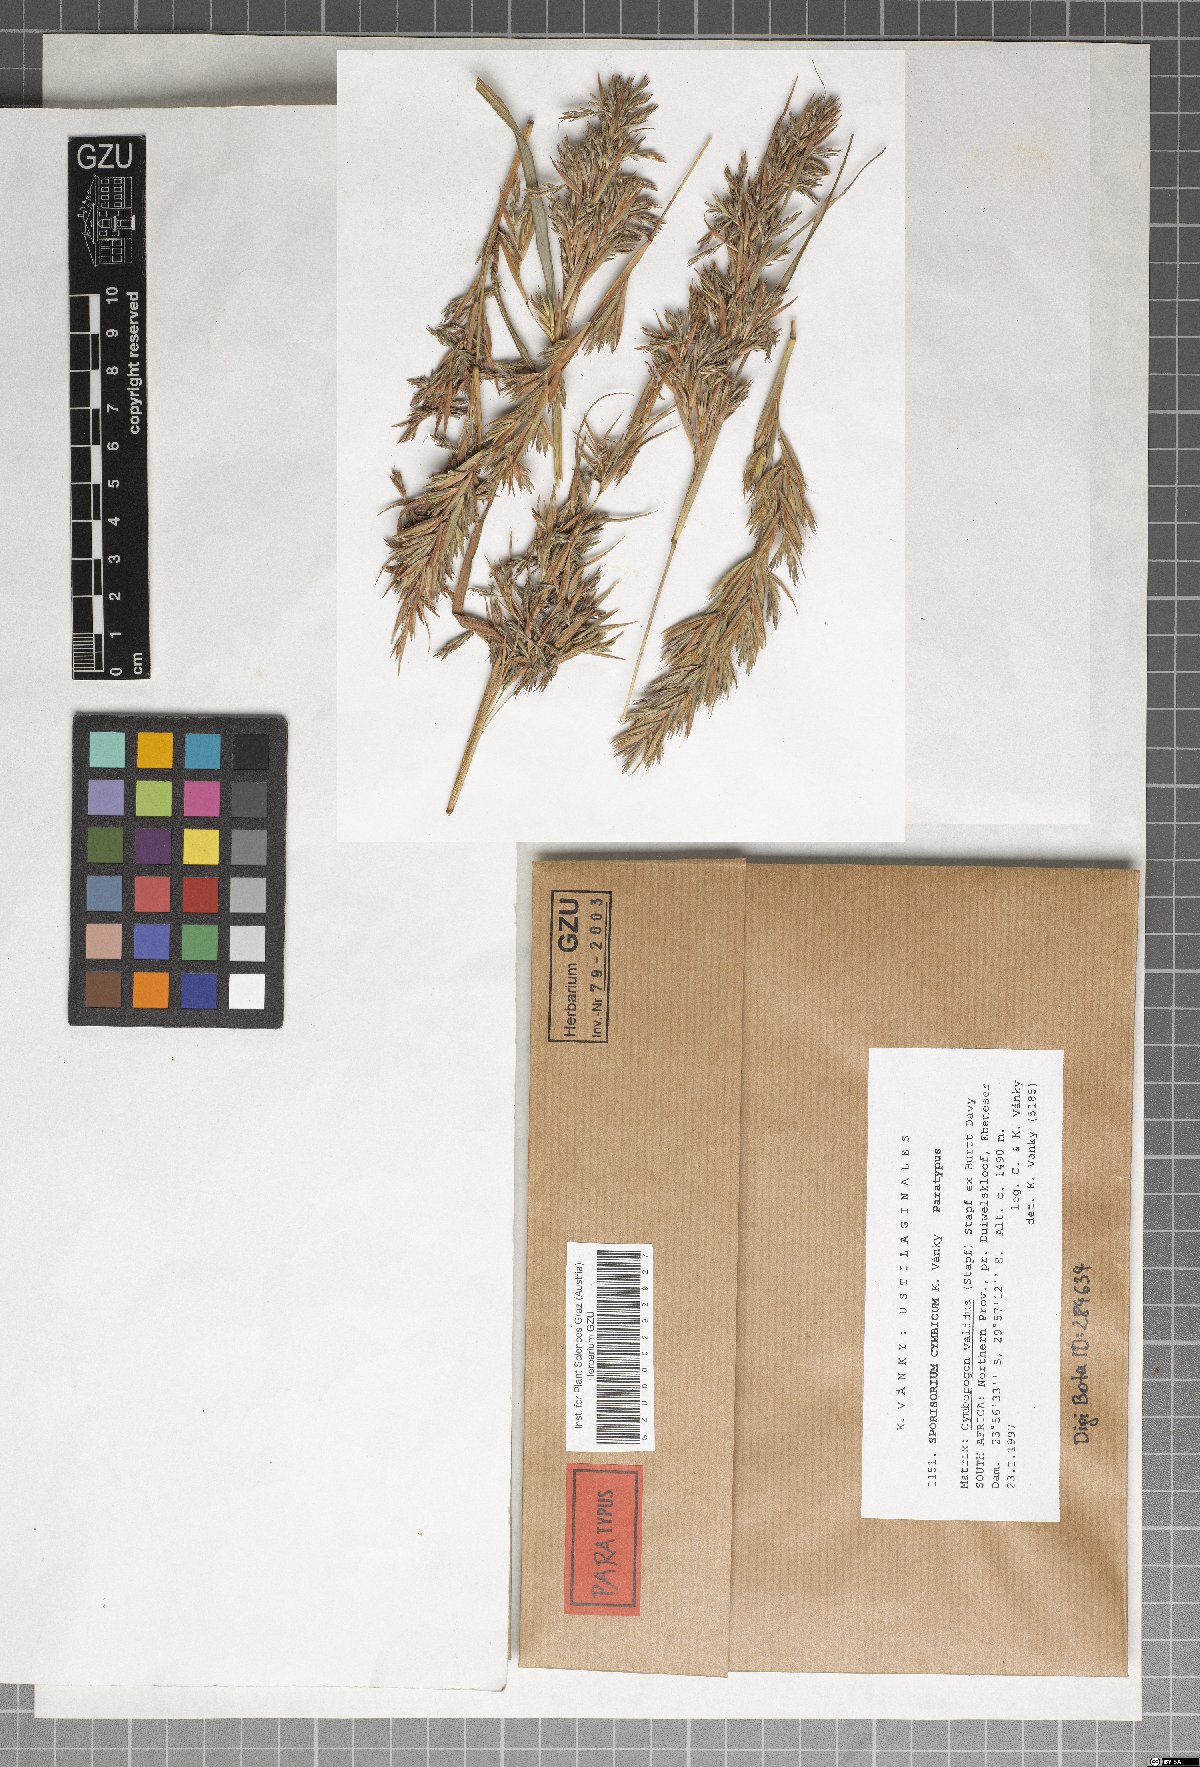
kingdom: Fungi
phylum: Basidiomycota
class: Ustilaginomycetes
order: Ustilaginales
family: Ustilaginaceae
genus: Sporisorium
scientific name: Sporisorium cymbicum
